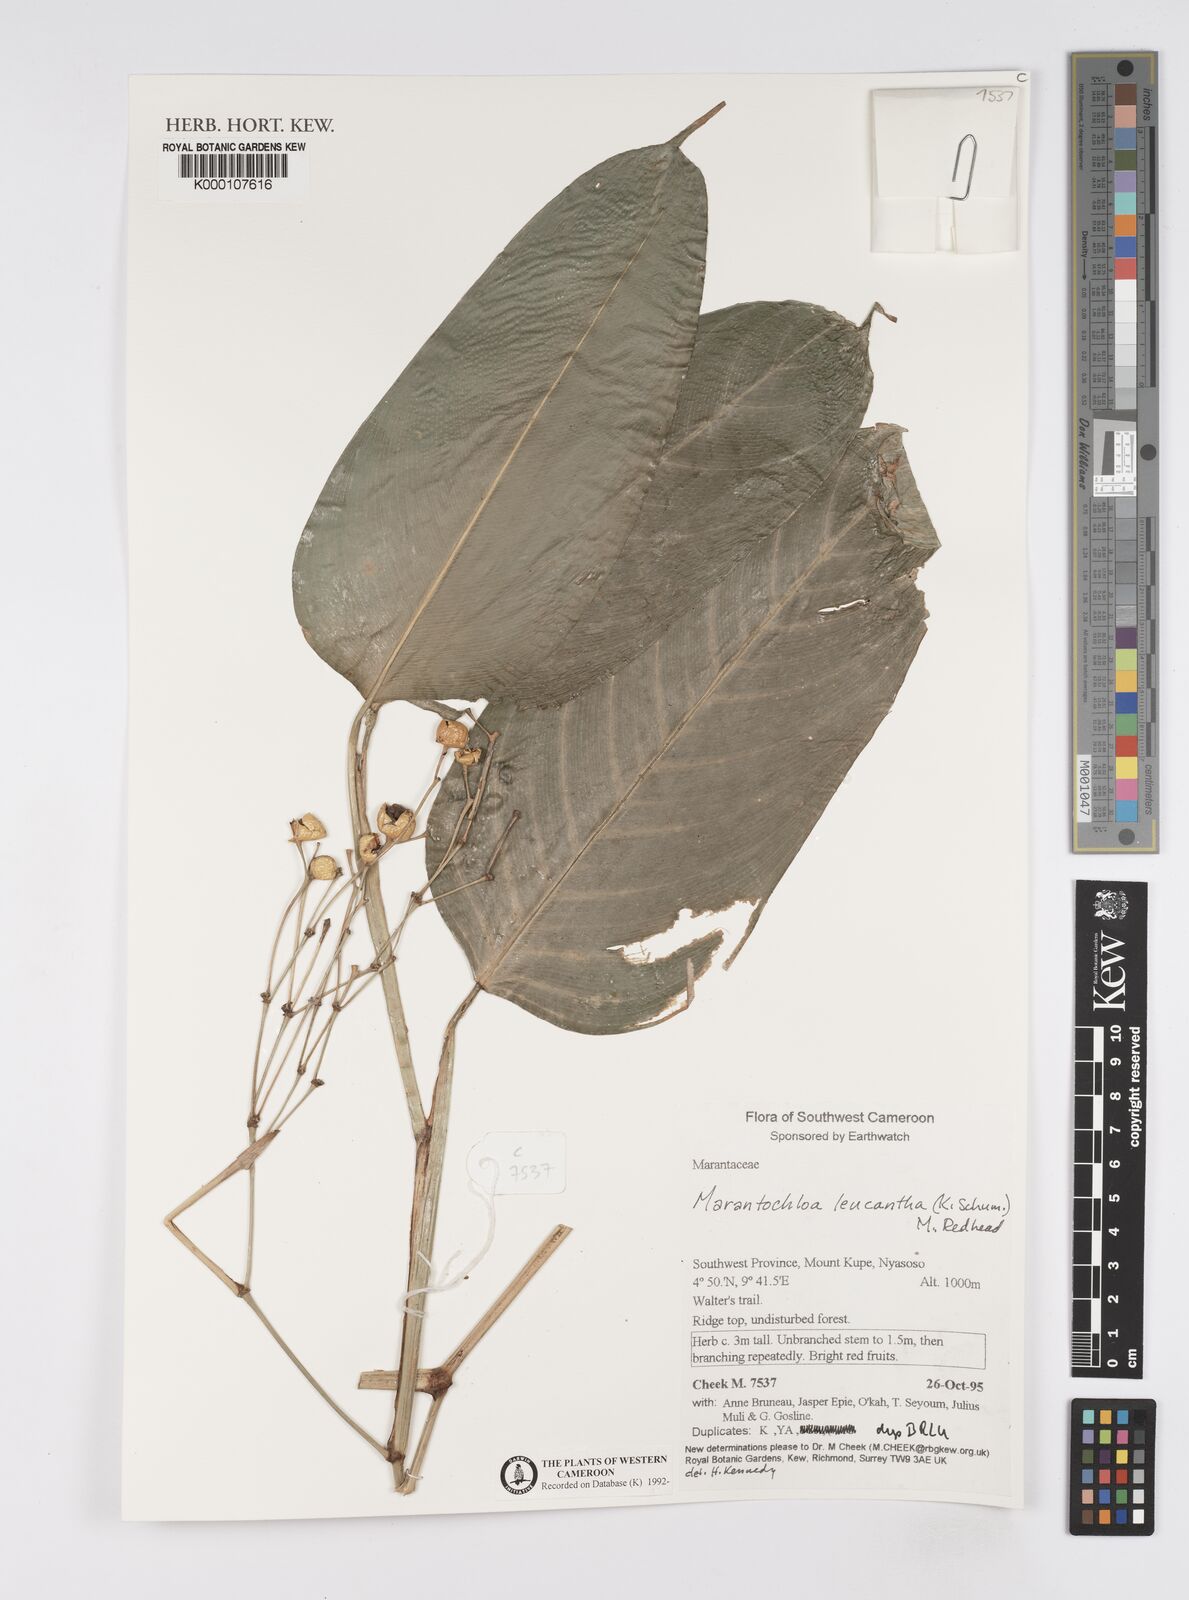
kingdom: Plantae
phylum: Tracheophyta
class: Liliopsida
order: Zingiberales
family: Marantaceae
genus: Marantochloa
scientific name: Marantochloa leucantha
